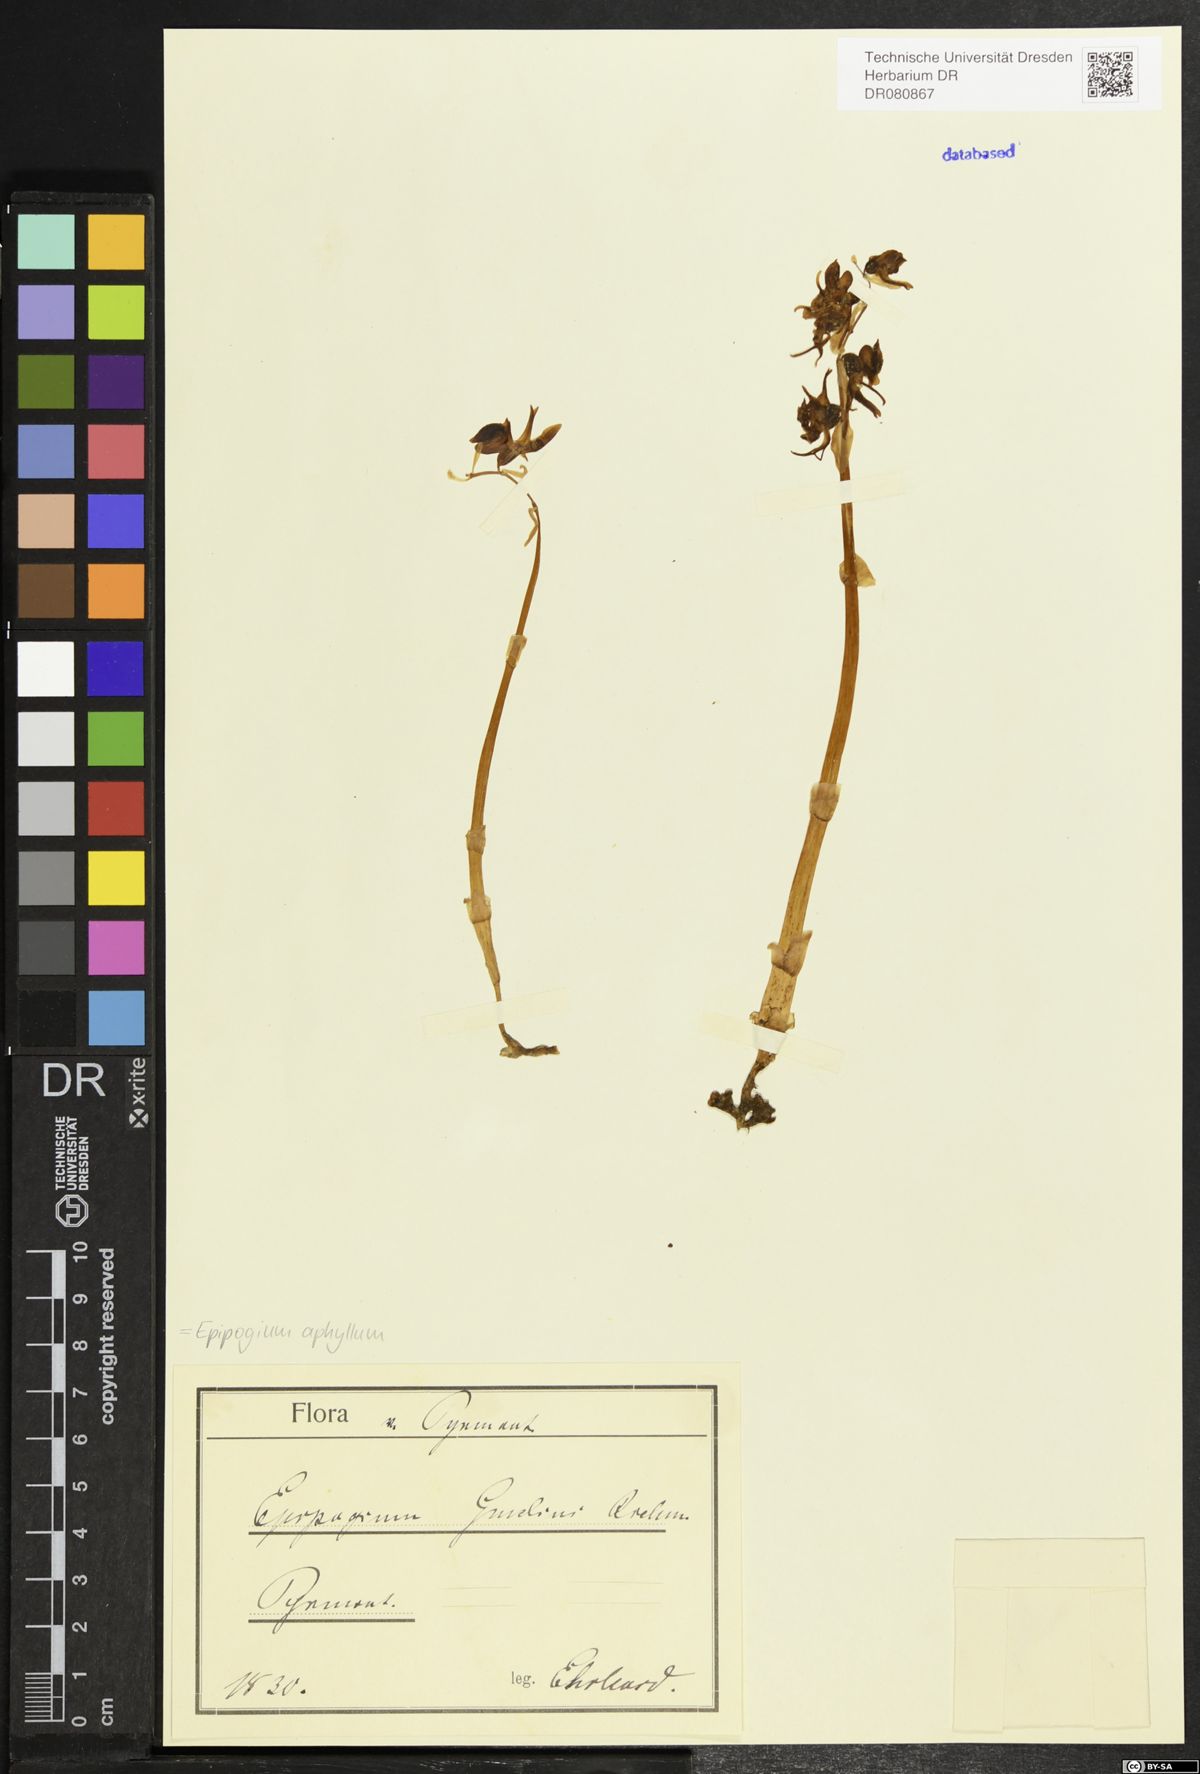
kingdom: Plantae
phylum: Tracheophyta
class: Liliopsida
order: Asparagales
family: Orchidaceae
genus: Epipogium
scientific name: Epipogium aphyllum
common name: Ghost orchid
